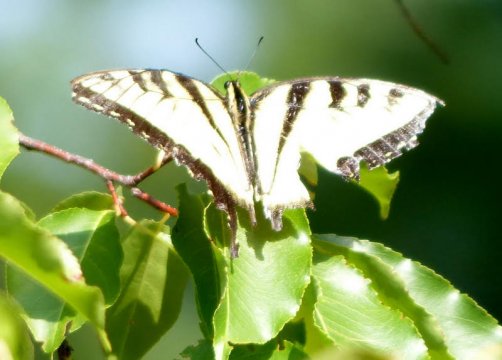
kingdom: Animalia
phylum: Arthropoda
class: Insecta
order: Lepidoptera
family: Papilionidae
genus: Pterourus
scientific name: Pterourus glaucus
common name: Eastern Tiger Swallowtail
